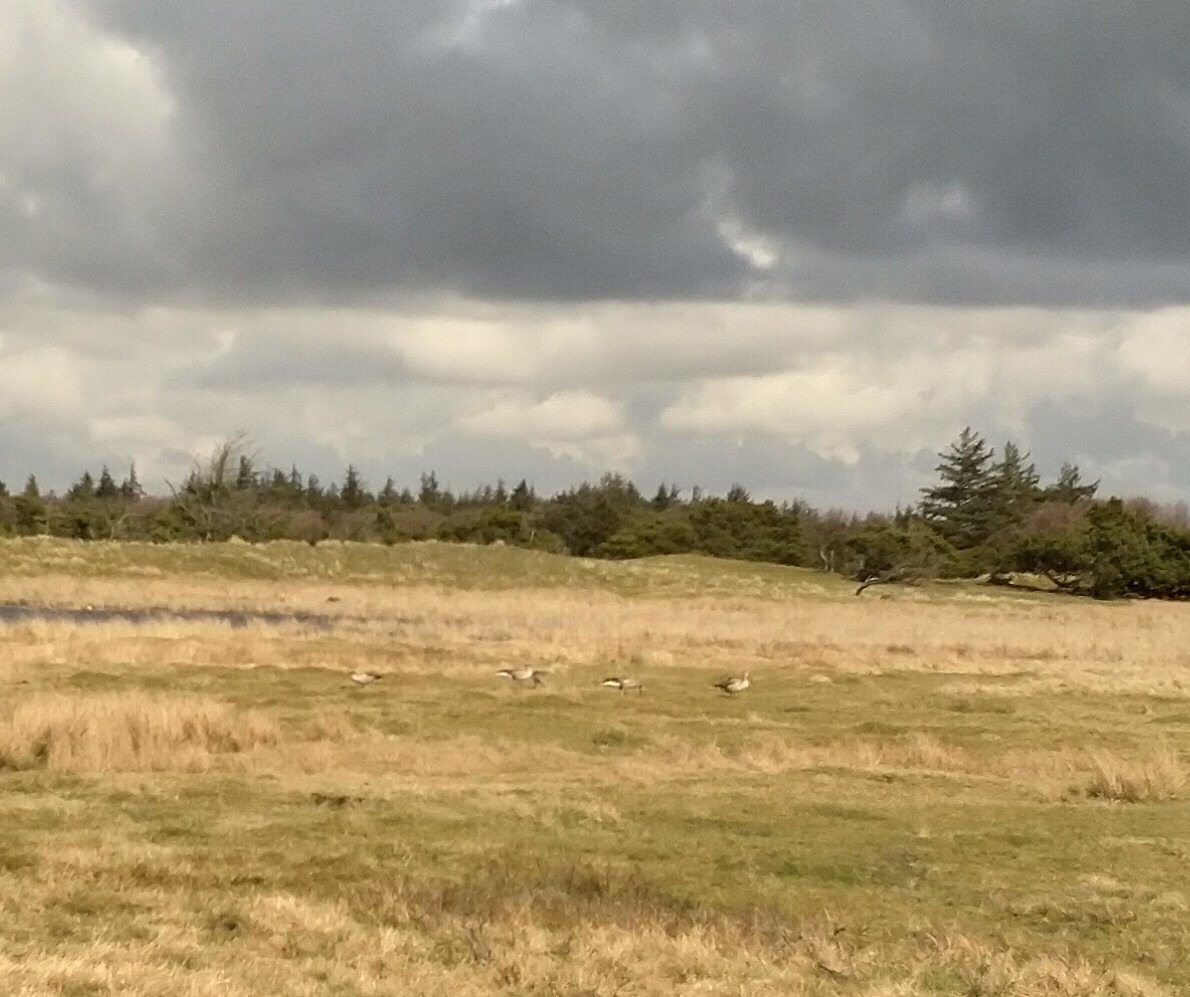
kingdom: Animalia
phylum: Chordata
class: Aves
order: Anseriformes
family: Anatidae
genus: Anser
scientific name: Anser anser
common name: Grågås
